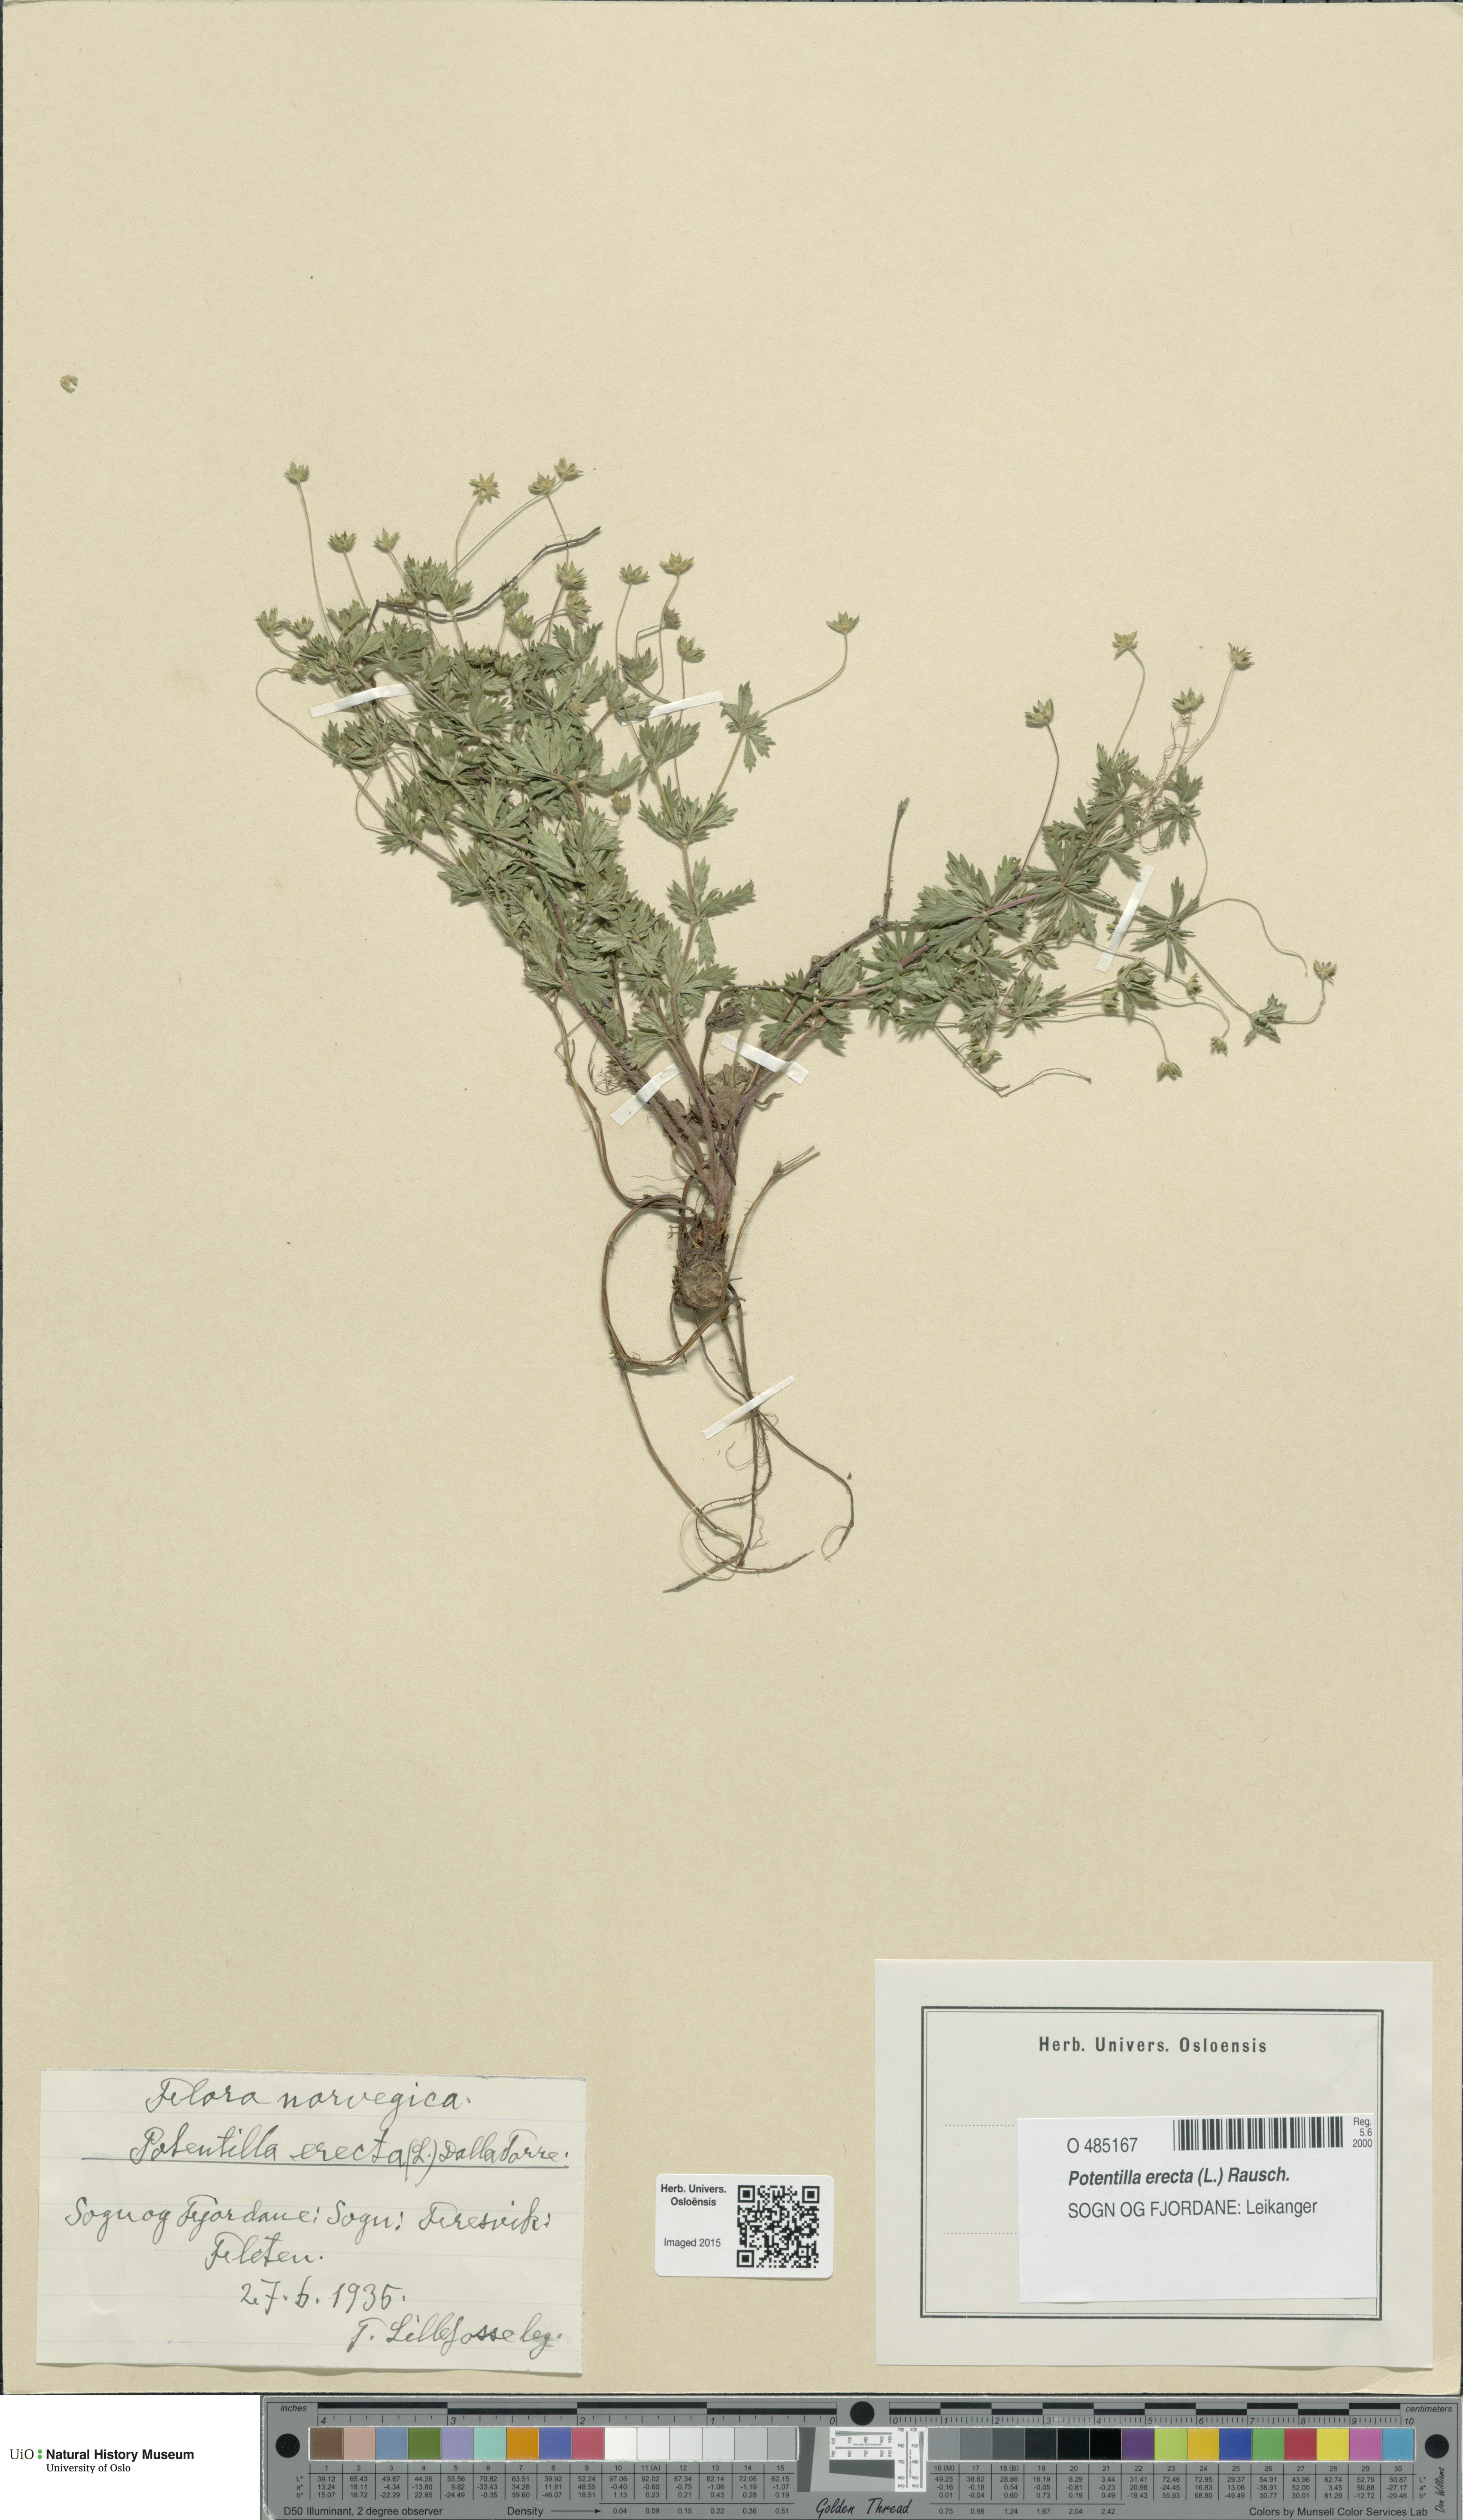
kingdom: Plantae
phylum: Tracheophyta
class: Magnoliopsida
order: Rosales
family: Rosaceae
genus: Potentilla
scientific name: Potentilla erecta
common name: Tormentil
